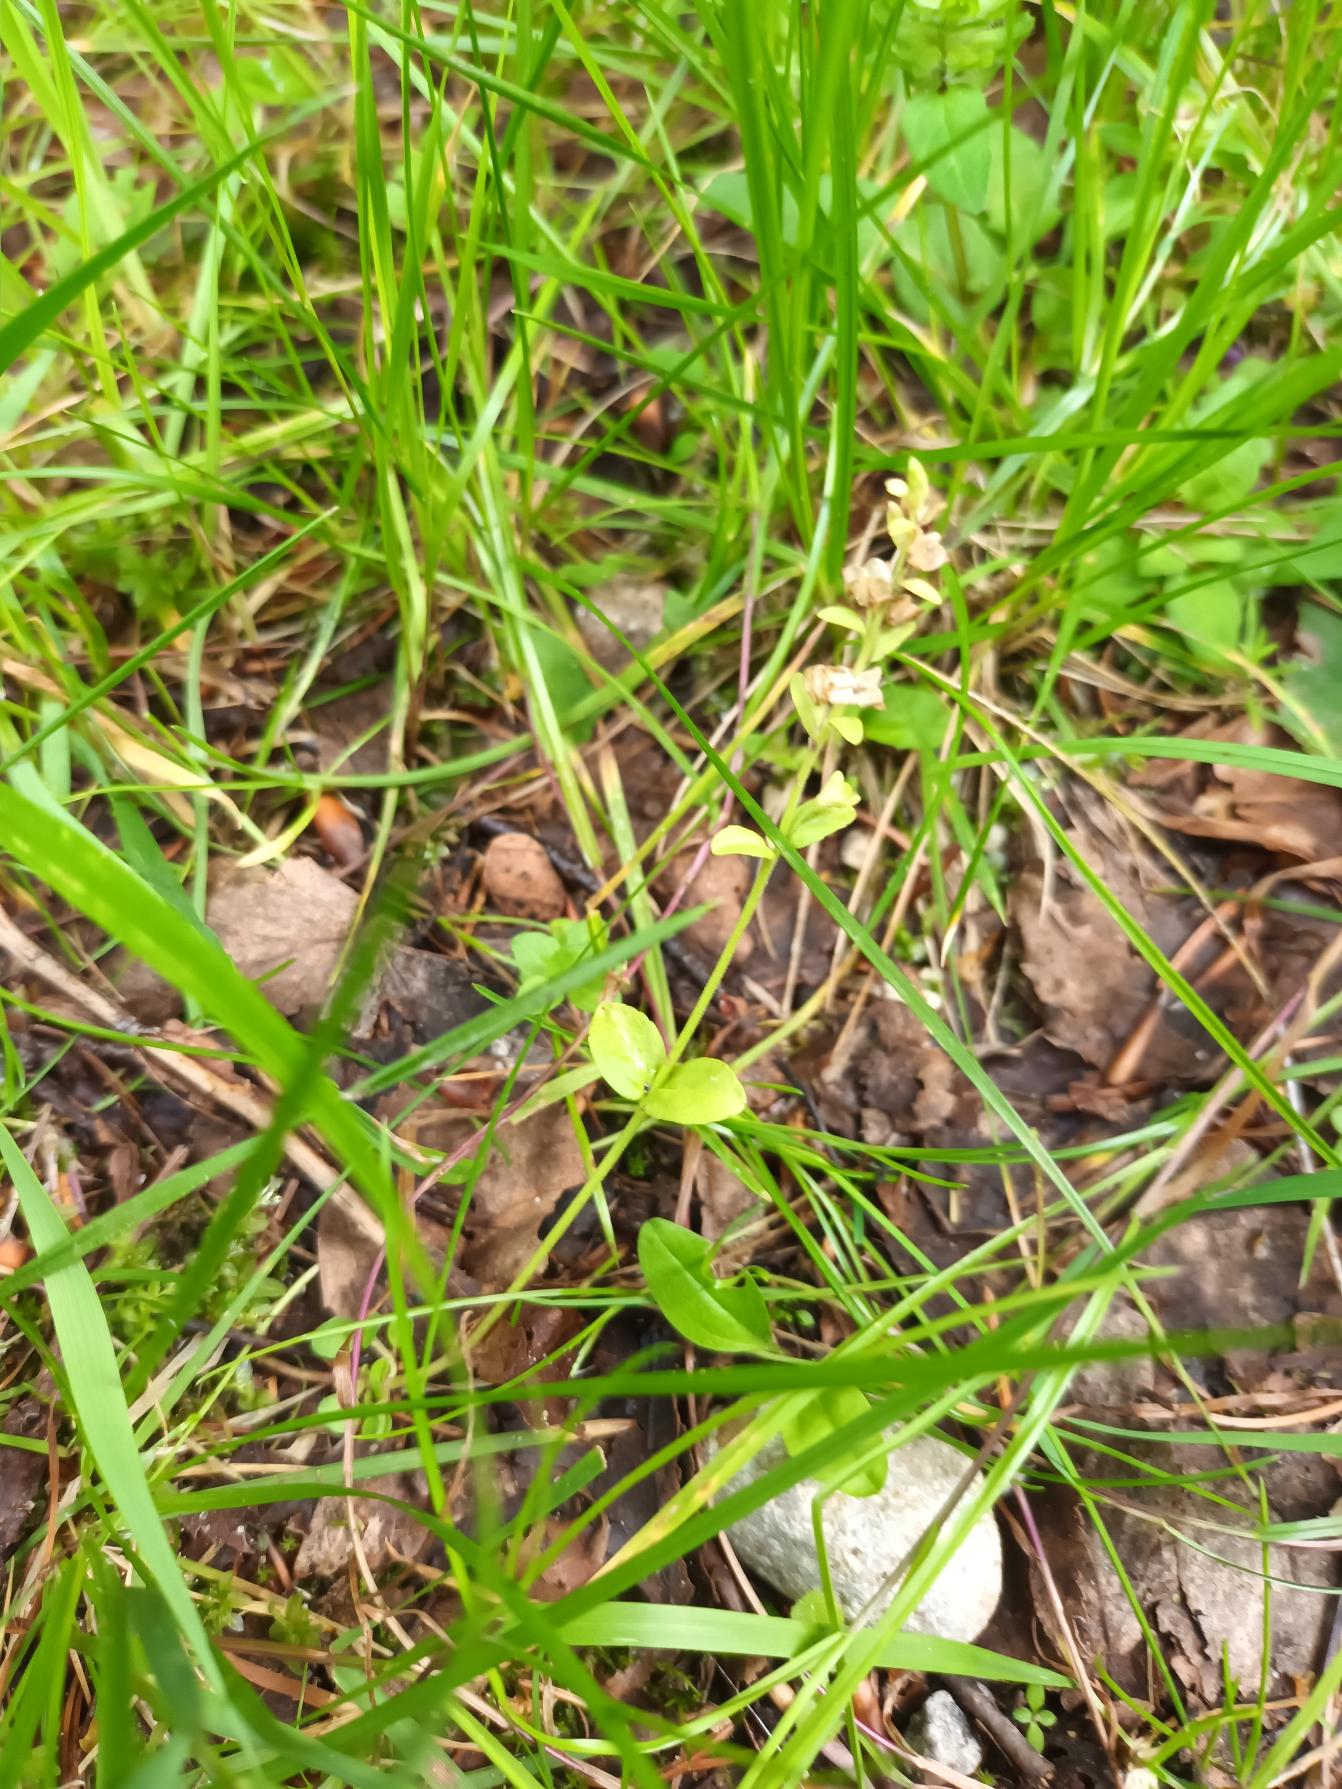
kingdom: Plantae
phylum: Tracheophyta
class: Magnoliopsida
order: Lamiales
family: Plantaginaceae
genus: Veronica
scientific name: Veronica serpyllifolia
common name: Glat ærenpris
